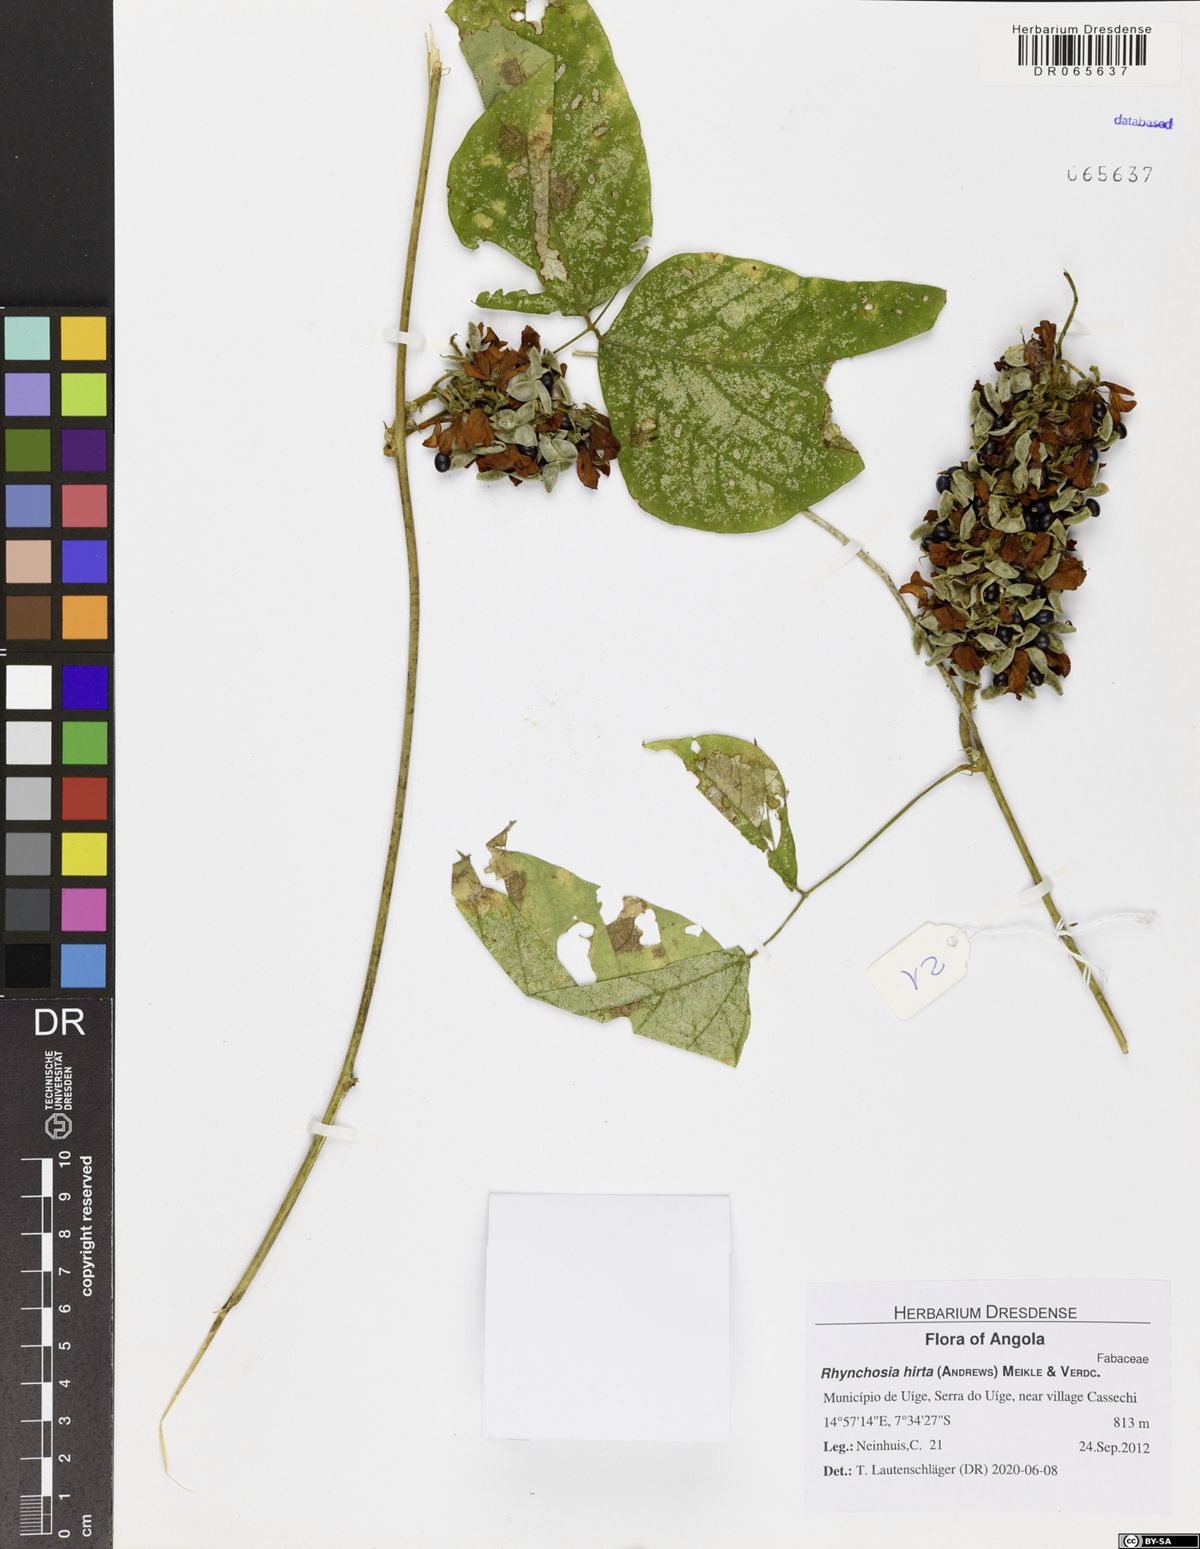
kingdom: Plantae
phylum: Tracheophyta
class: Magnoliopsida
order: Fabales
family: Fabaceae
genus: Rhynchosia
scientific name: Rhynchosia hirta
